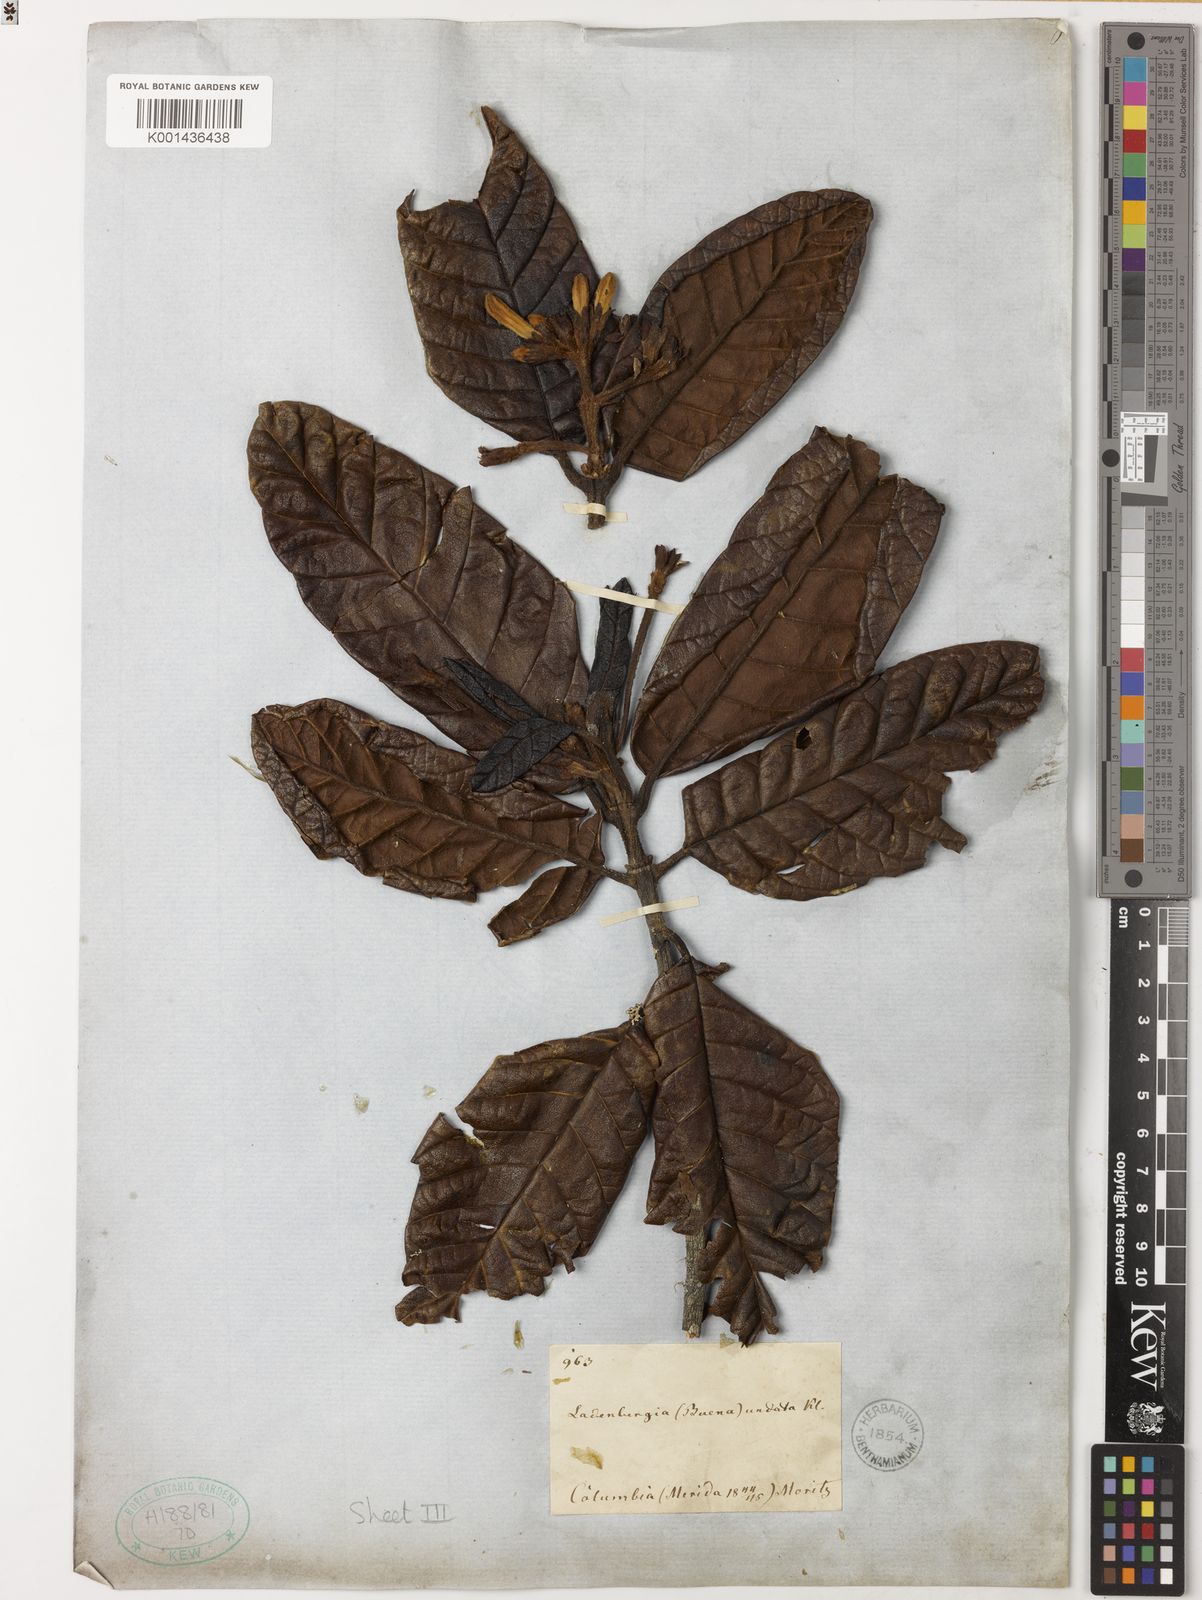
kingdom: Plantae
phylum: Tracheophyta
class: Magnoliopsida
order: Gentianales
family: Rubiaceae
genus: Ladenbergia
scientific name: Ladenbergia undata
